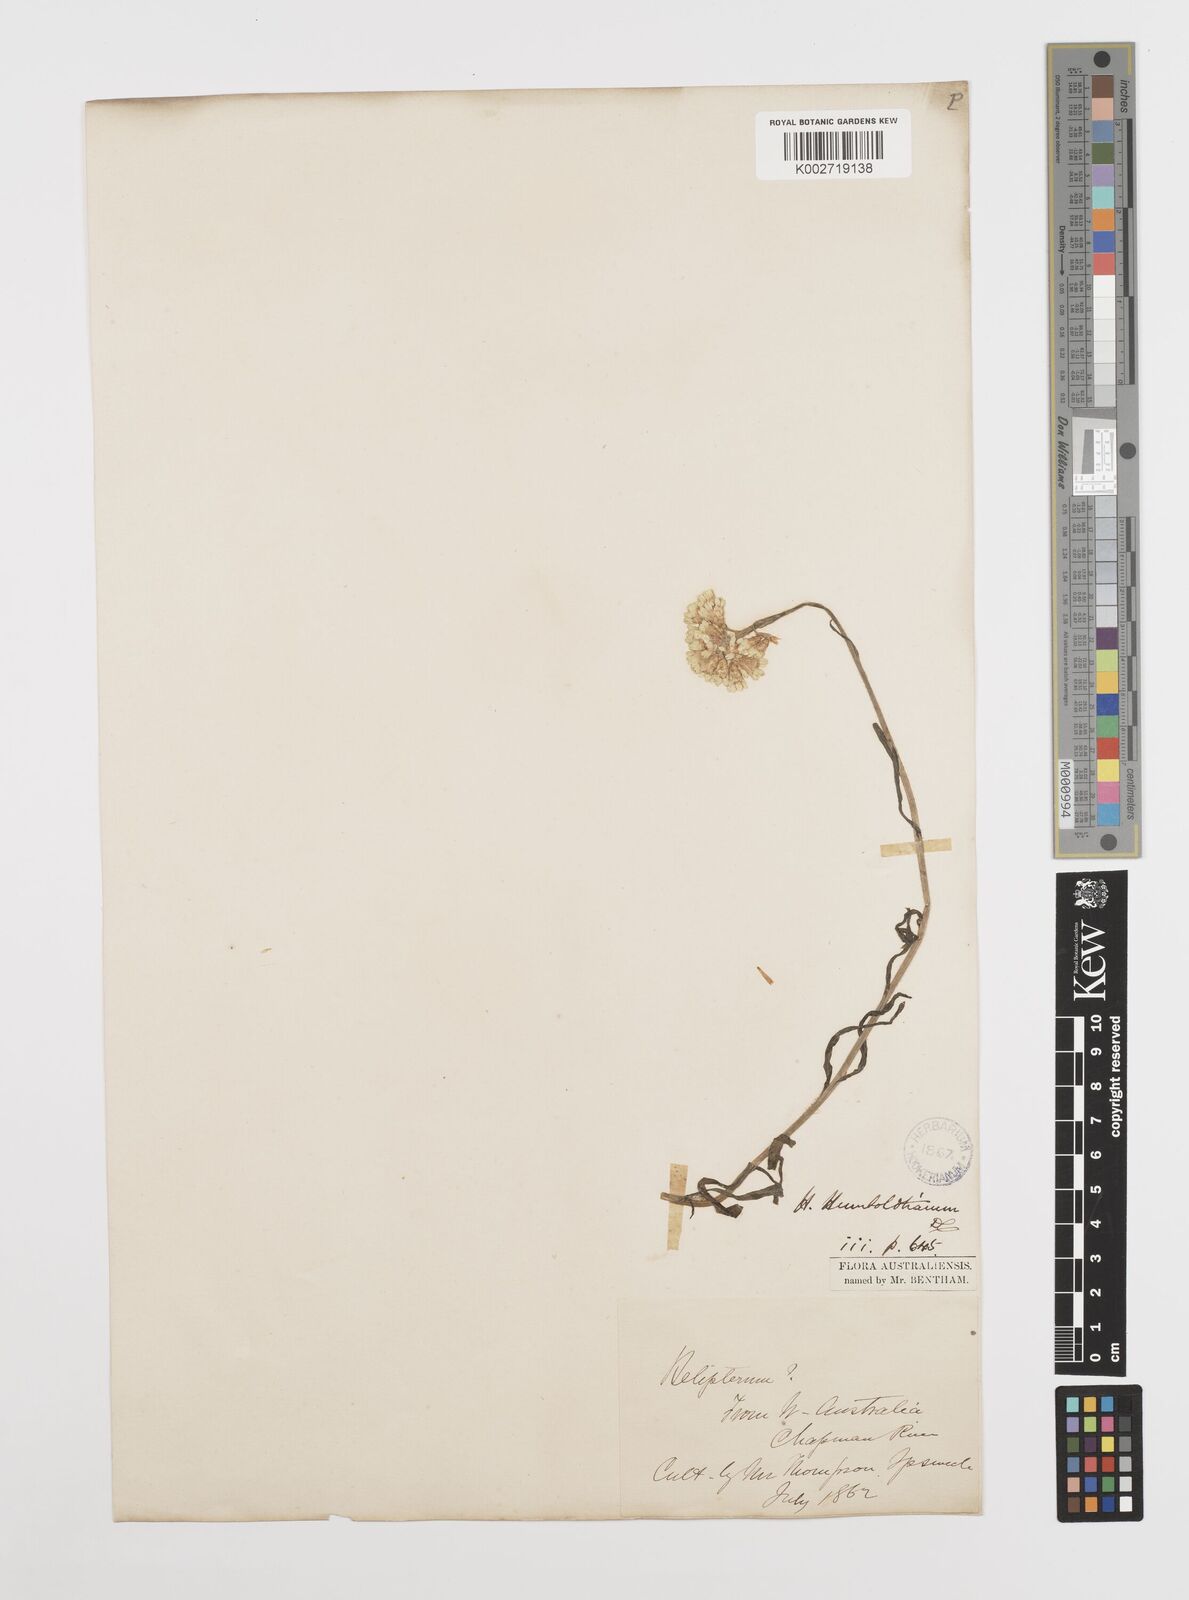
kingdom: Plantae
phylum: Tracheophyta
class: Magnoliopsida
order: Asterales
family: Asteraceae
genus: Rhodanthe
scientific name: Rhodanthe humboldtiana
